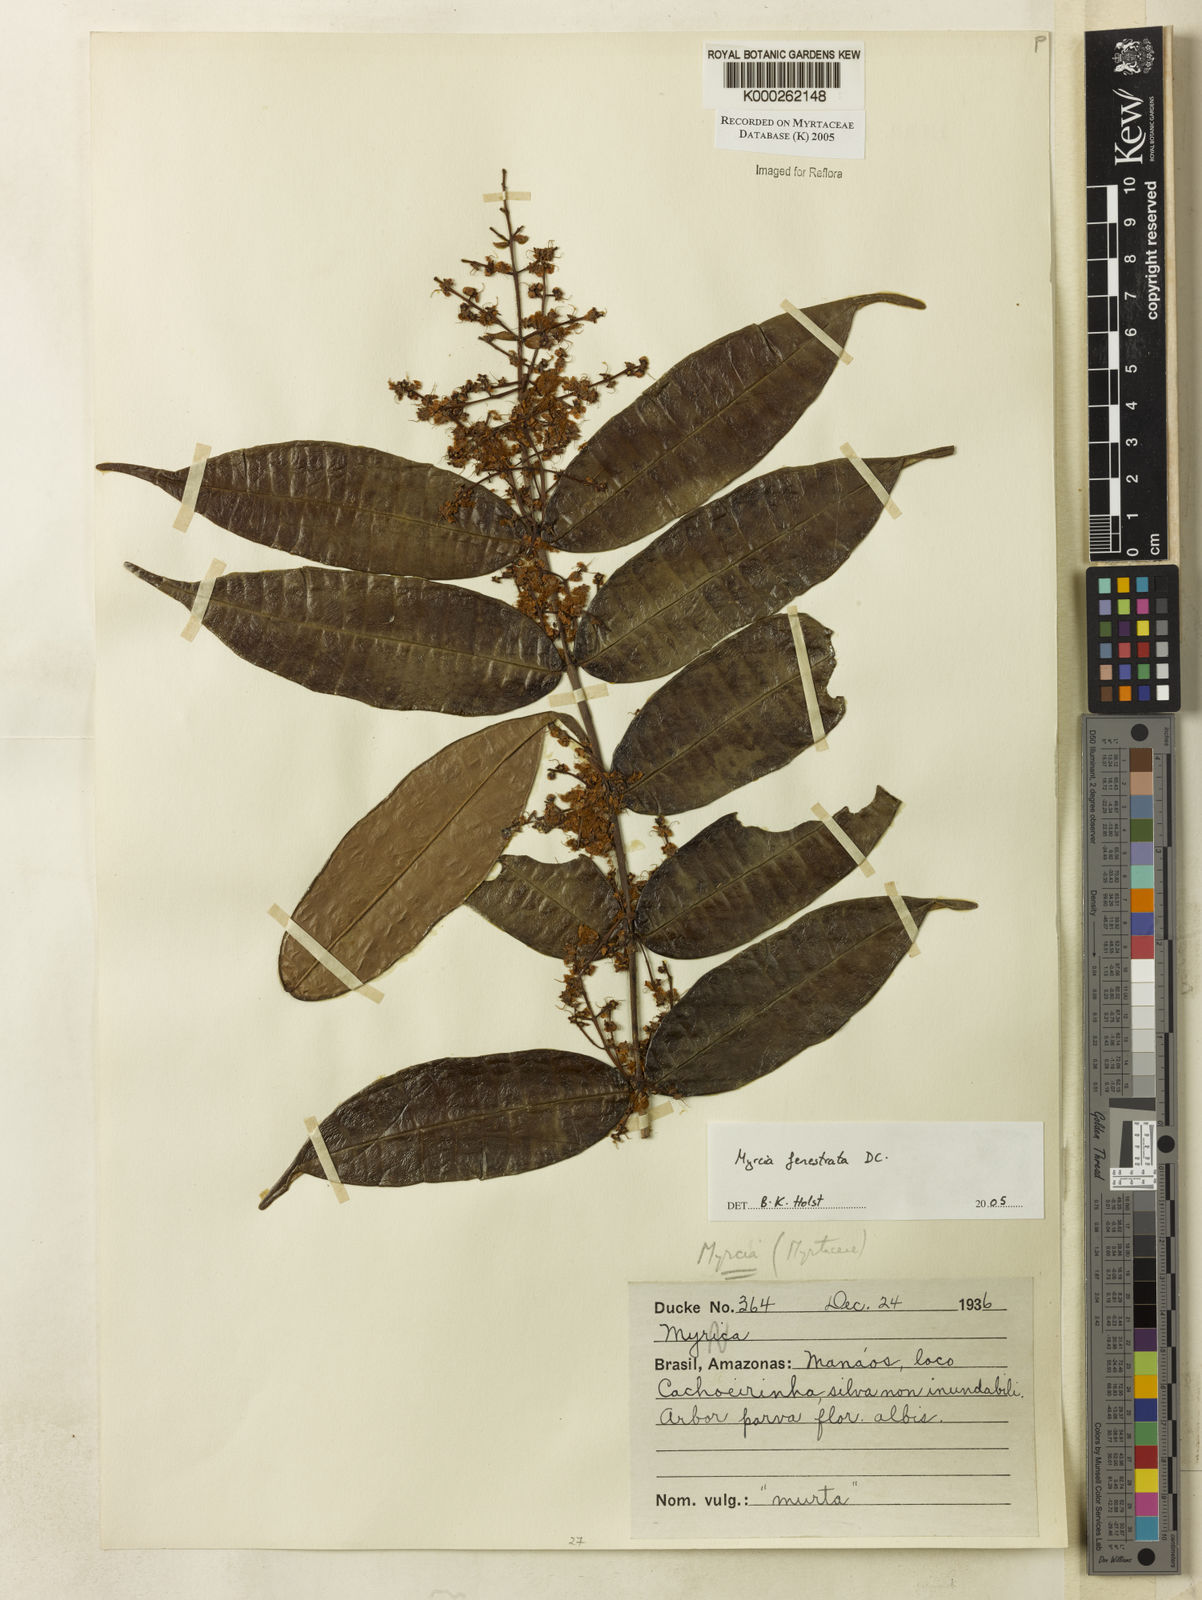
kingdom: Plantae
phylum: Tracheophyta
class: Magnoliopsida
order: Myrtales
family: Myrtaceae
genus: Myrcia
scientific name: Myrcia fenestrata
